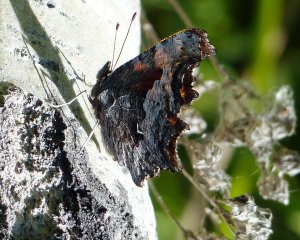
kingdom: Animalia
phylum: Arthropoda
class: Insecta
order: Lepidoptera
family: Nymphalidae
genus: Polygonia
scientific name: Polygonia gracilis
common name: Hoary Comma
